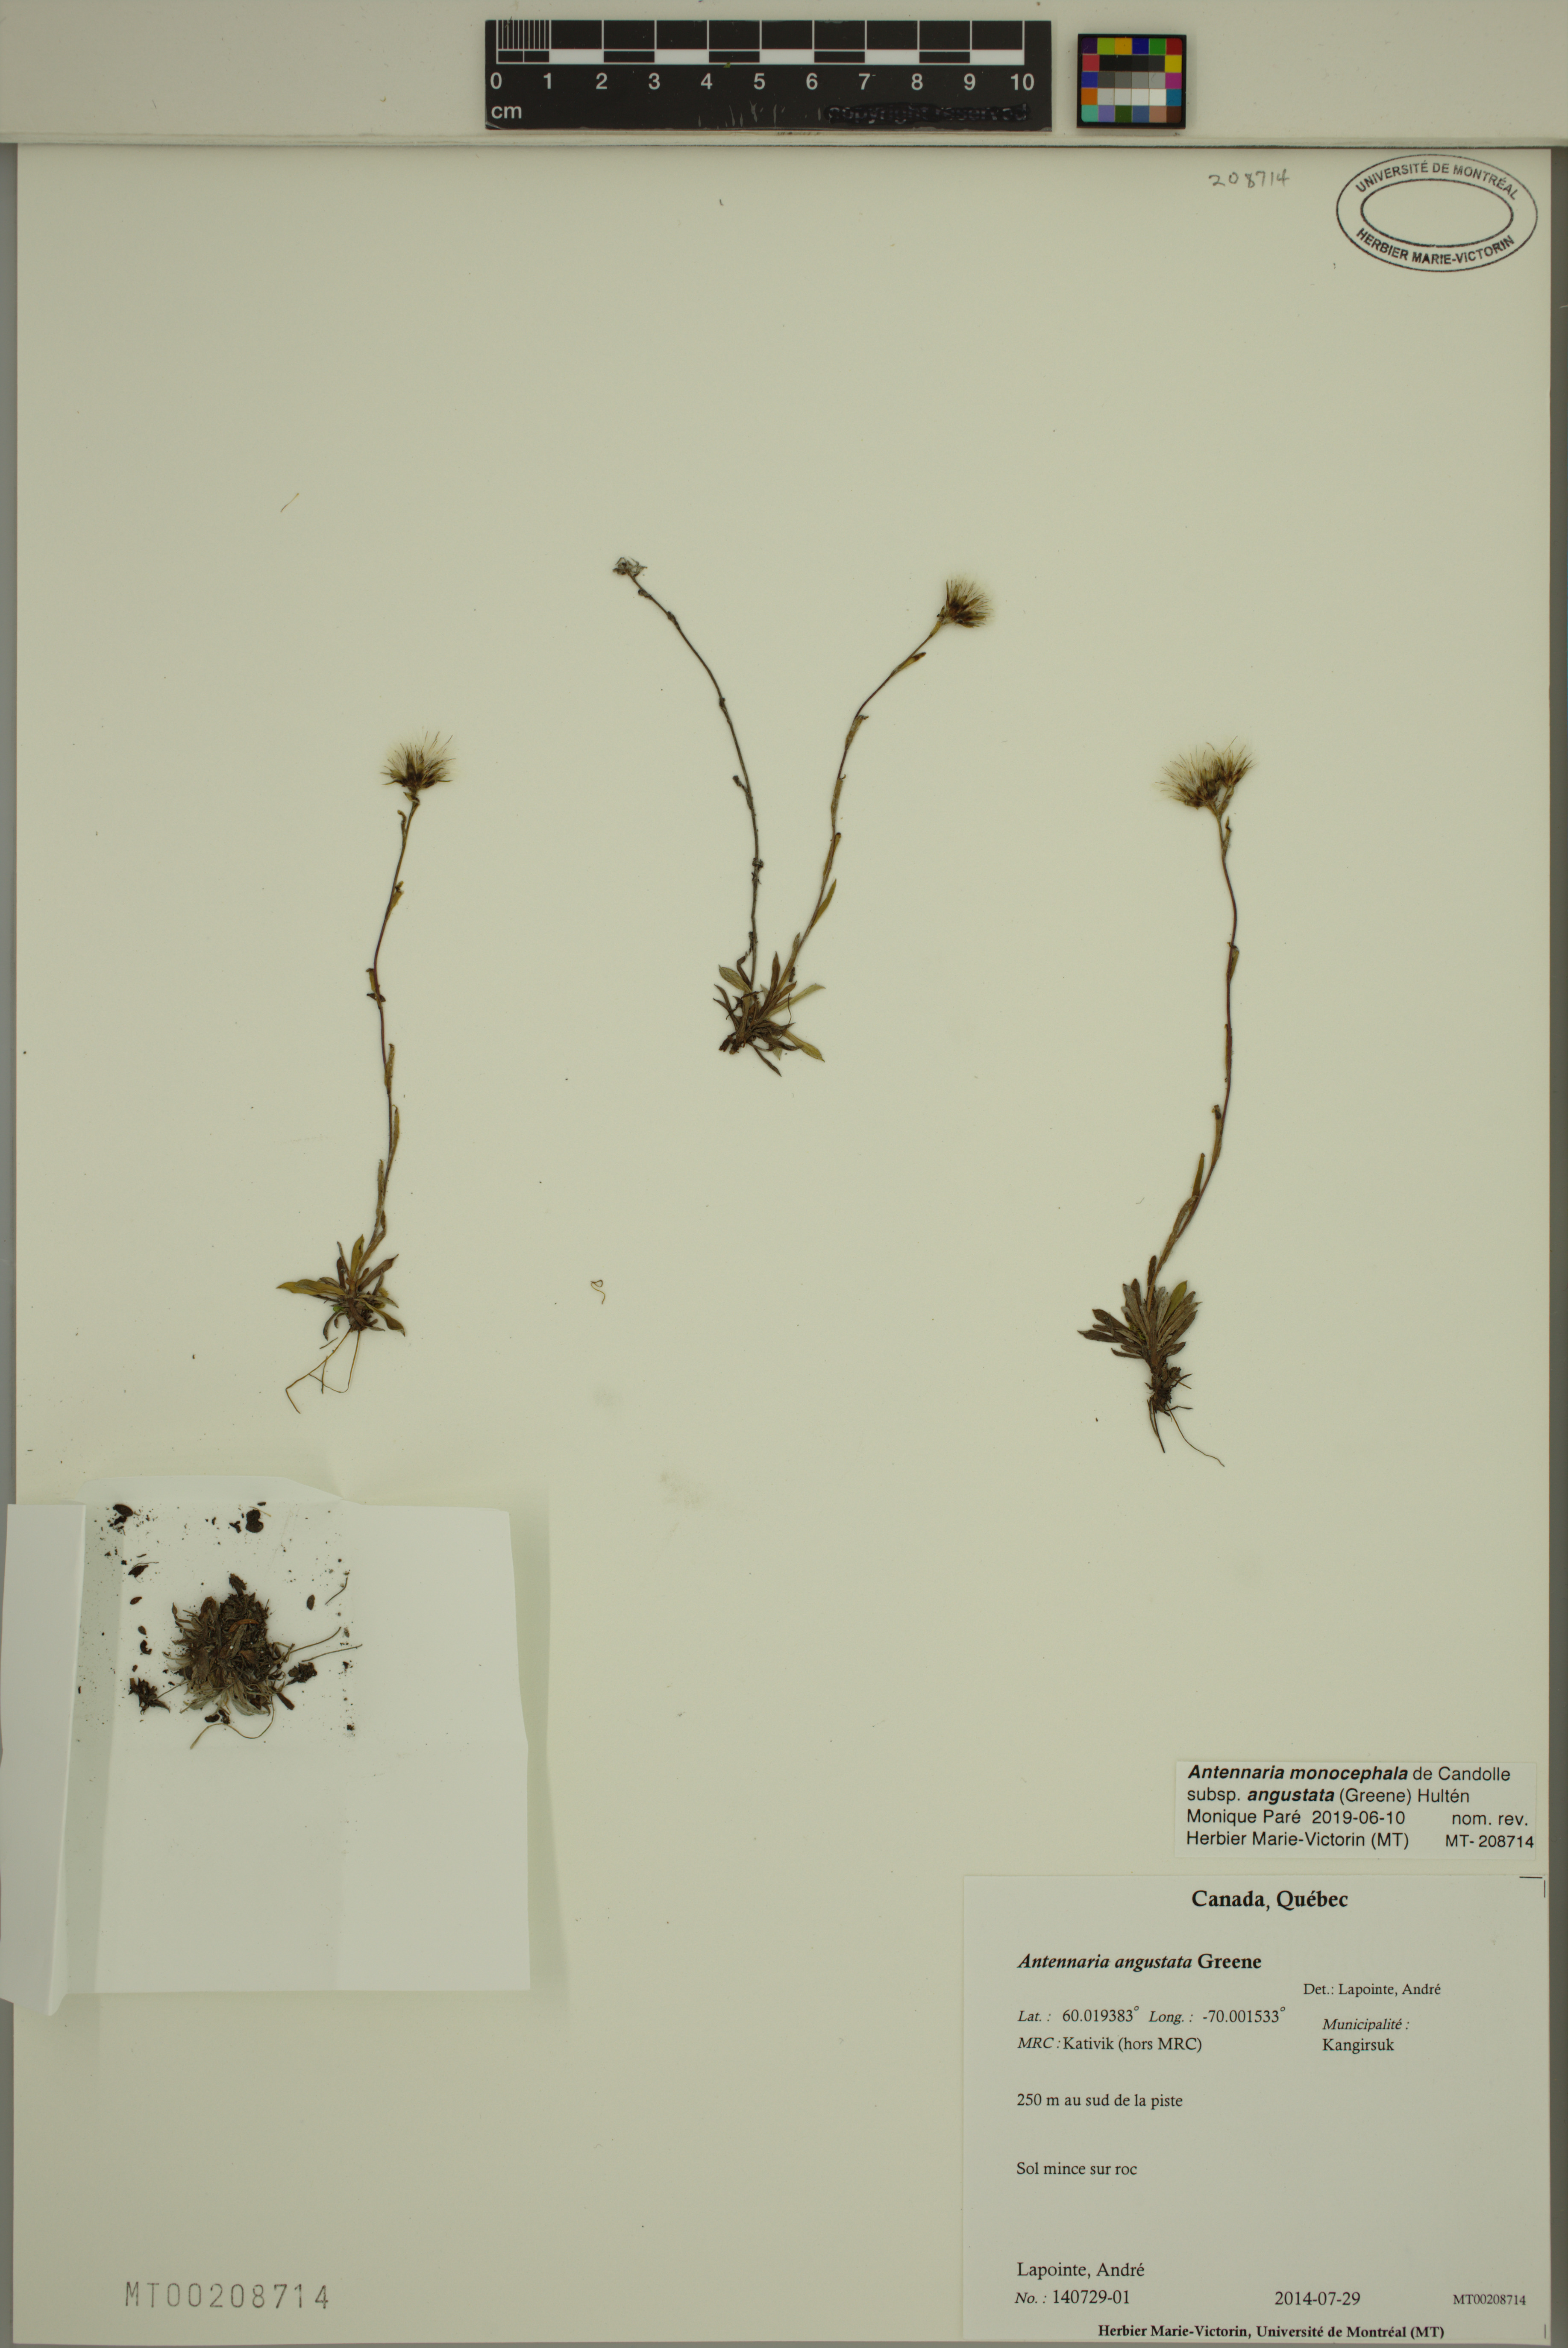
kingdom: Plantae
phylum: Tracheophyta
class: Magnoliopsida
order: Asterales
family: Asteraceae
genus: Antennaria
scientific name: Antennaria monocephala
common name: Pygmy pussytoes
